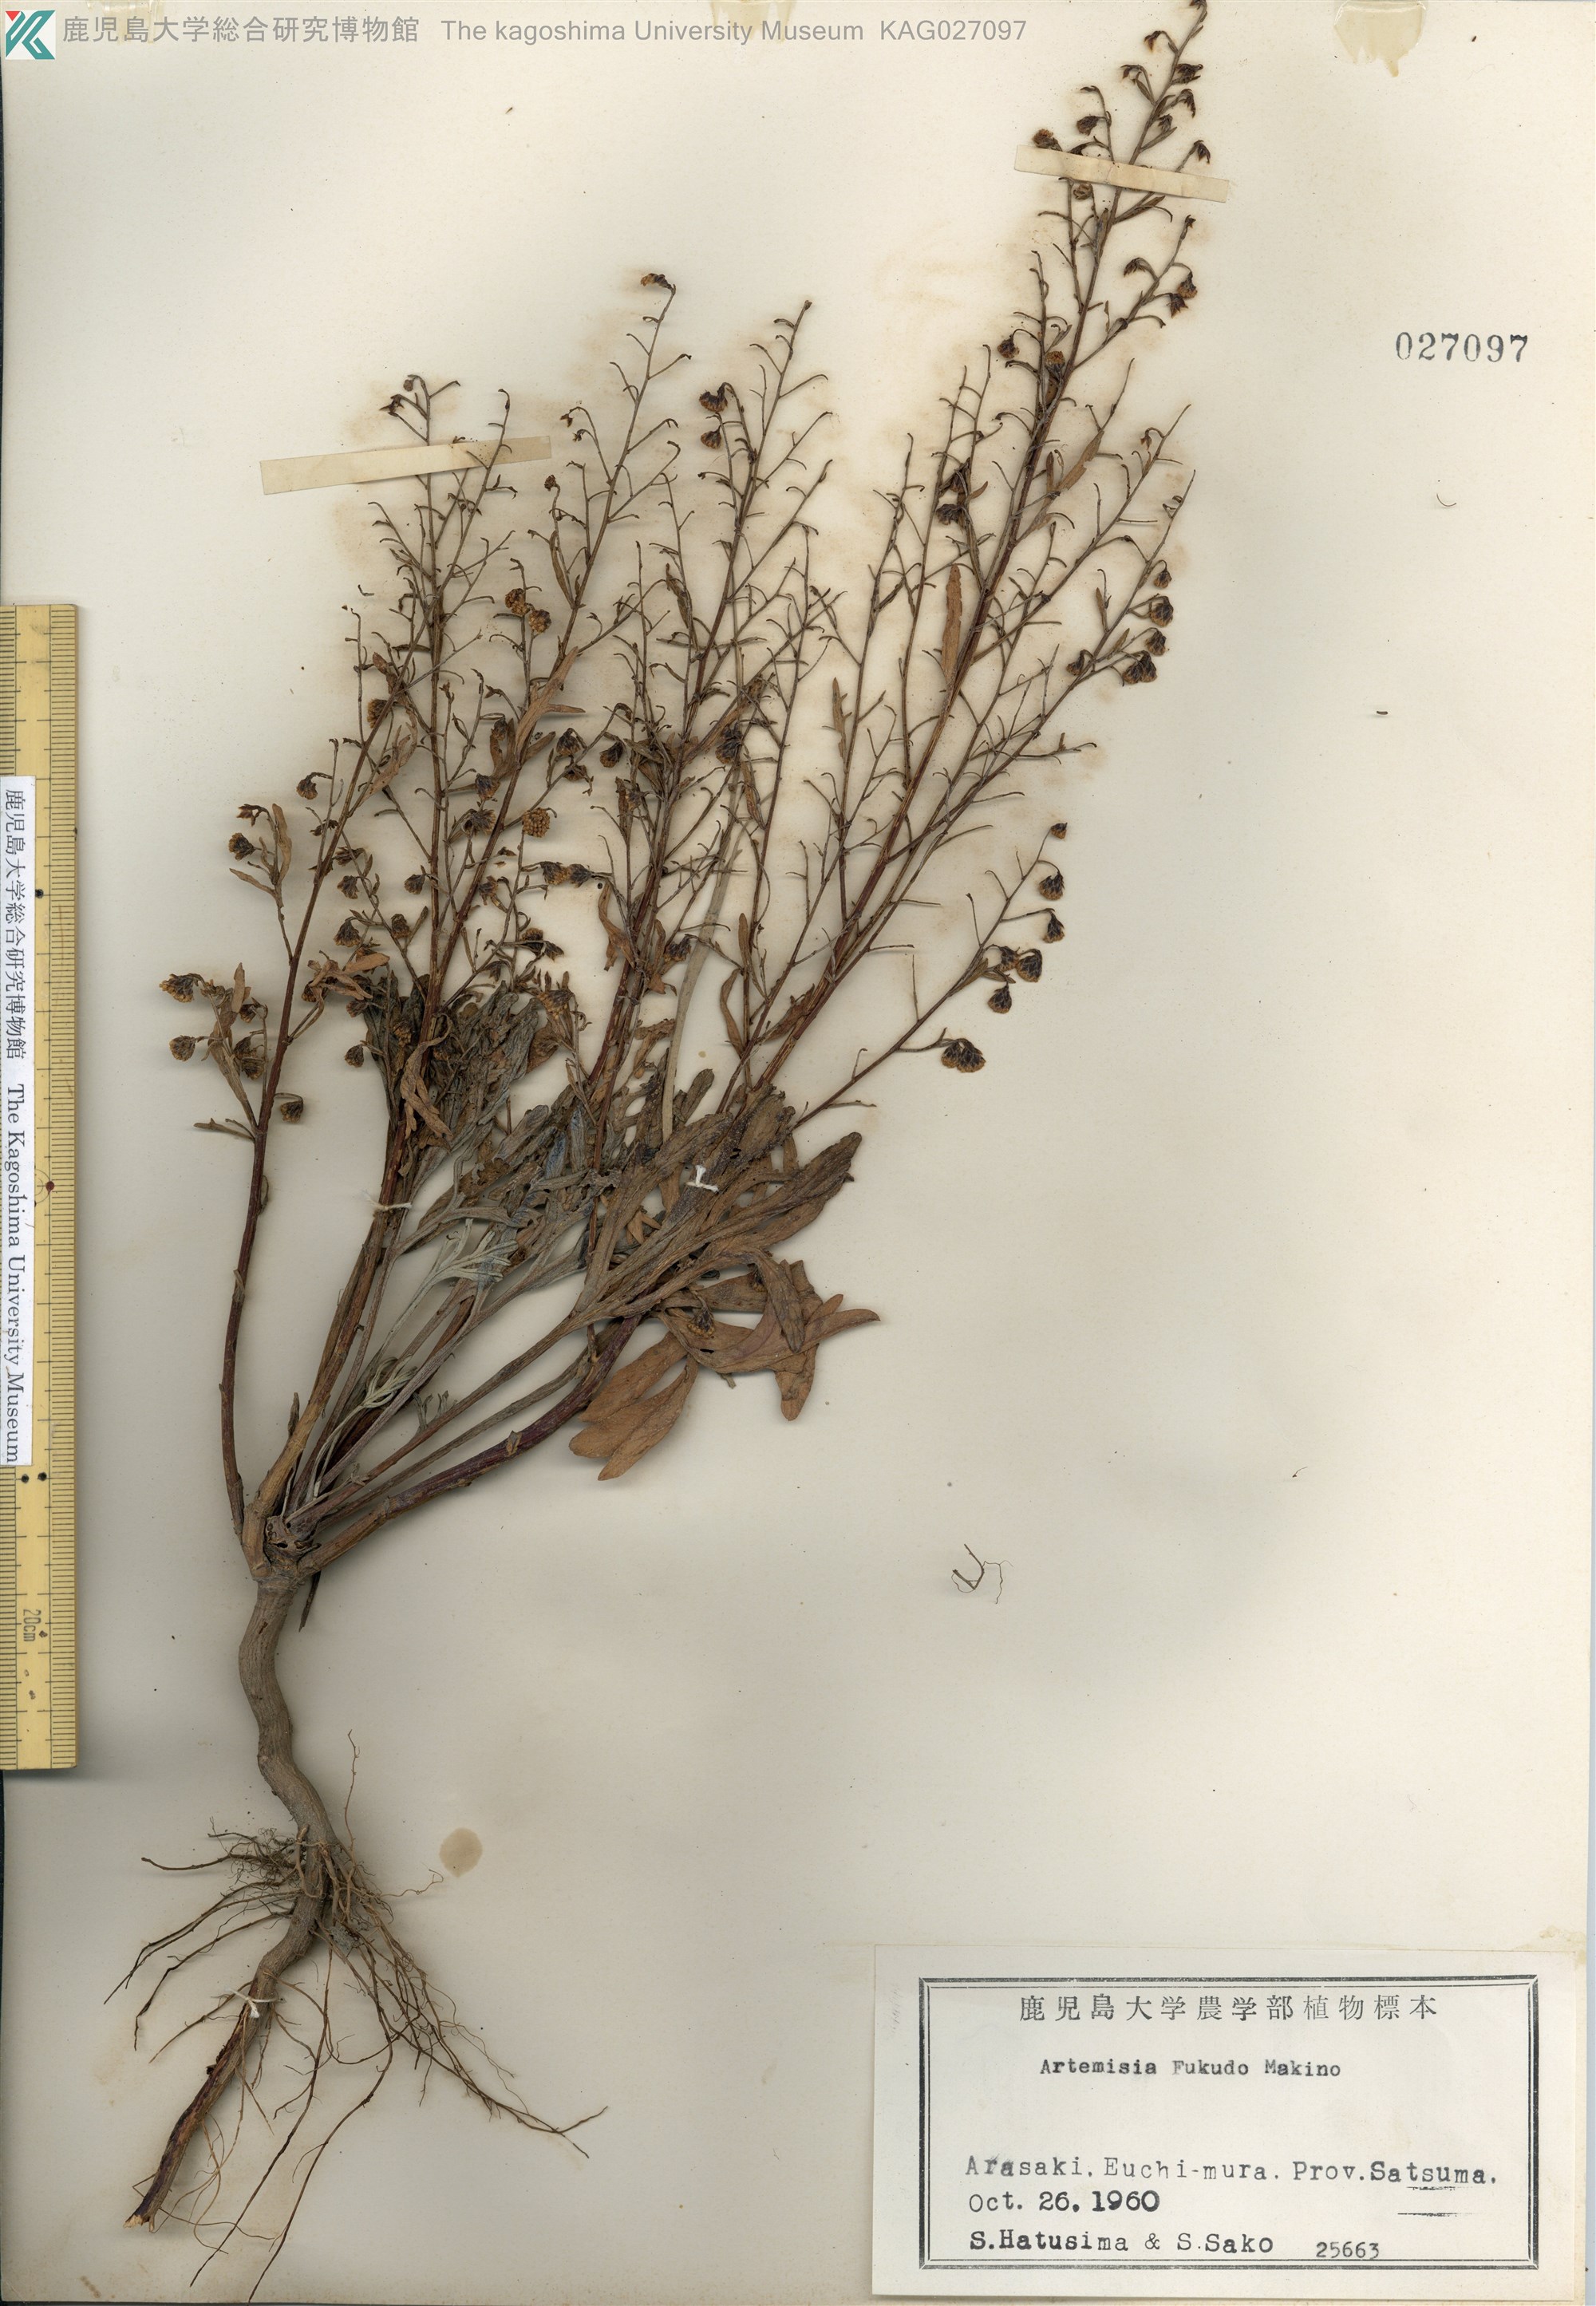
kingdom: Plantae
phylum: Tracheophyta
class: Magnoliopsida
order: Asterales
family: Asteraceae
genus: Artemisia
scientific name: Artemisia fukudo
